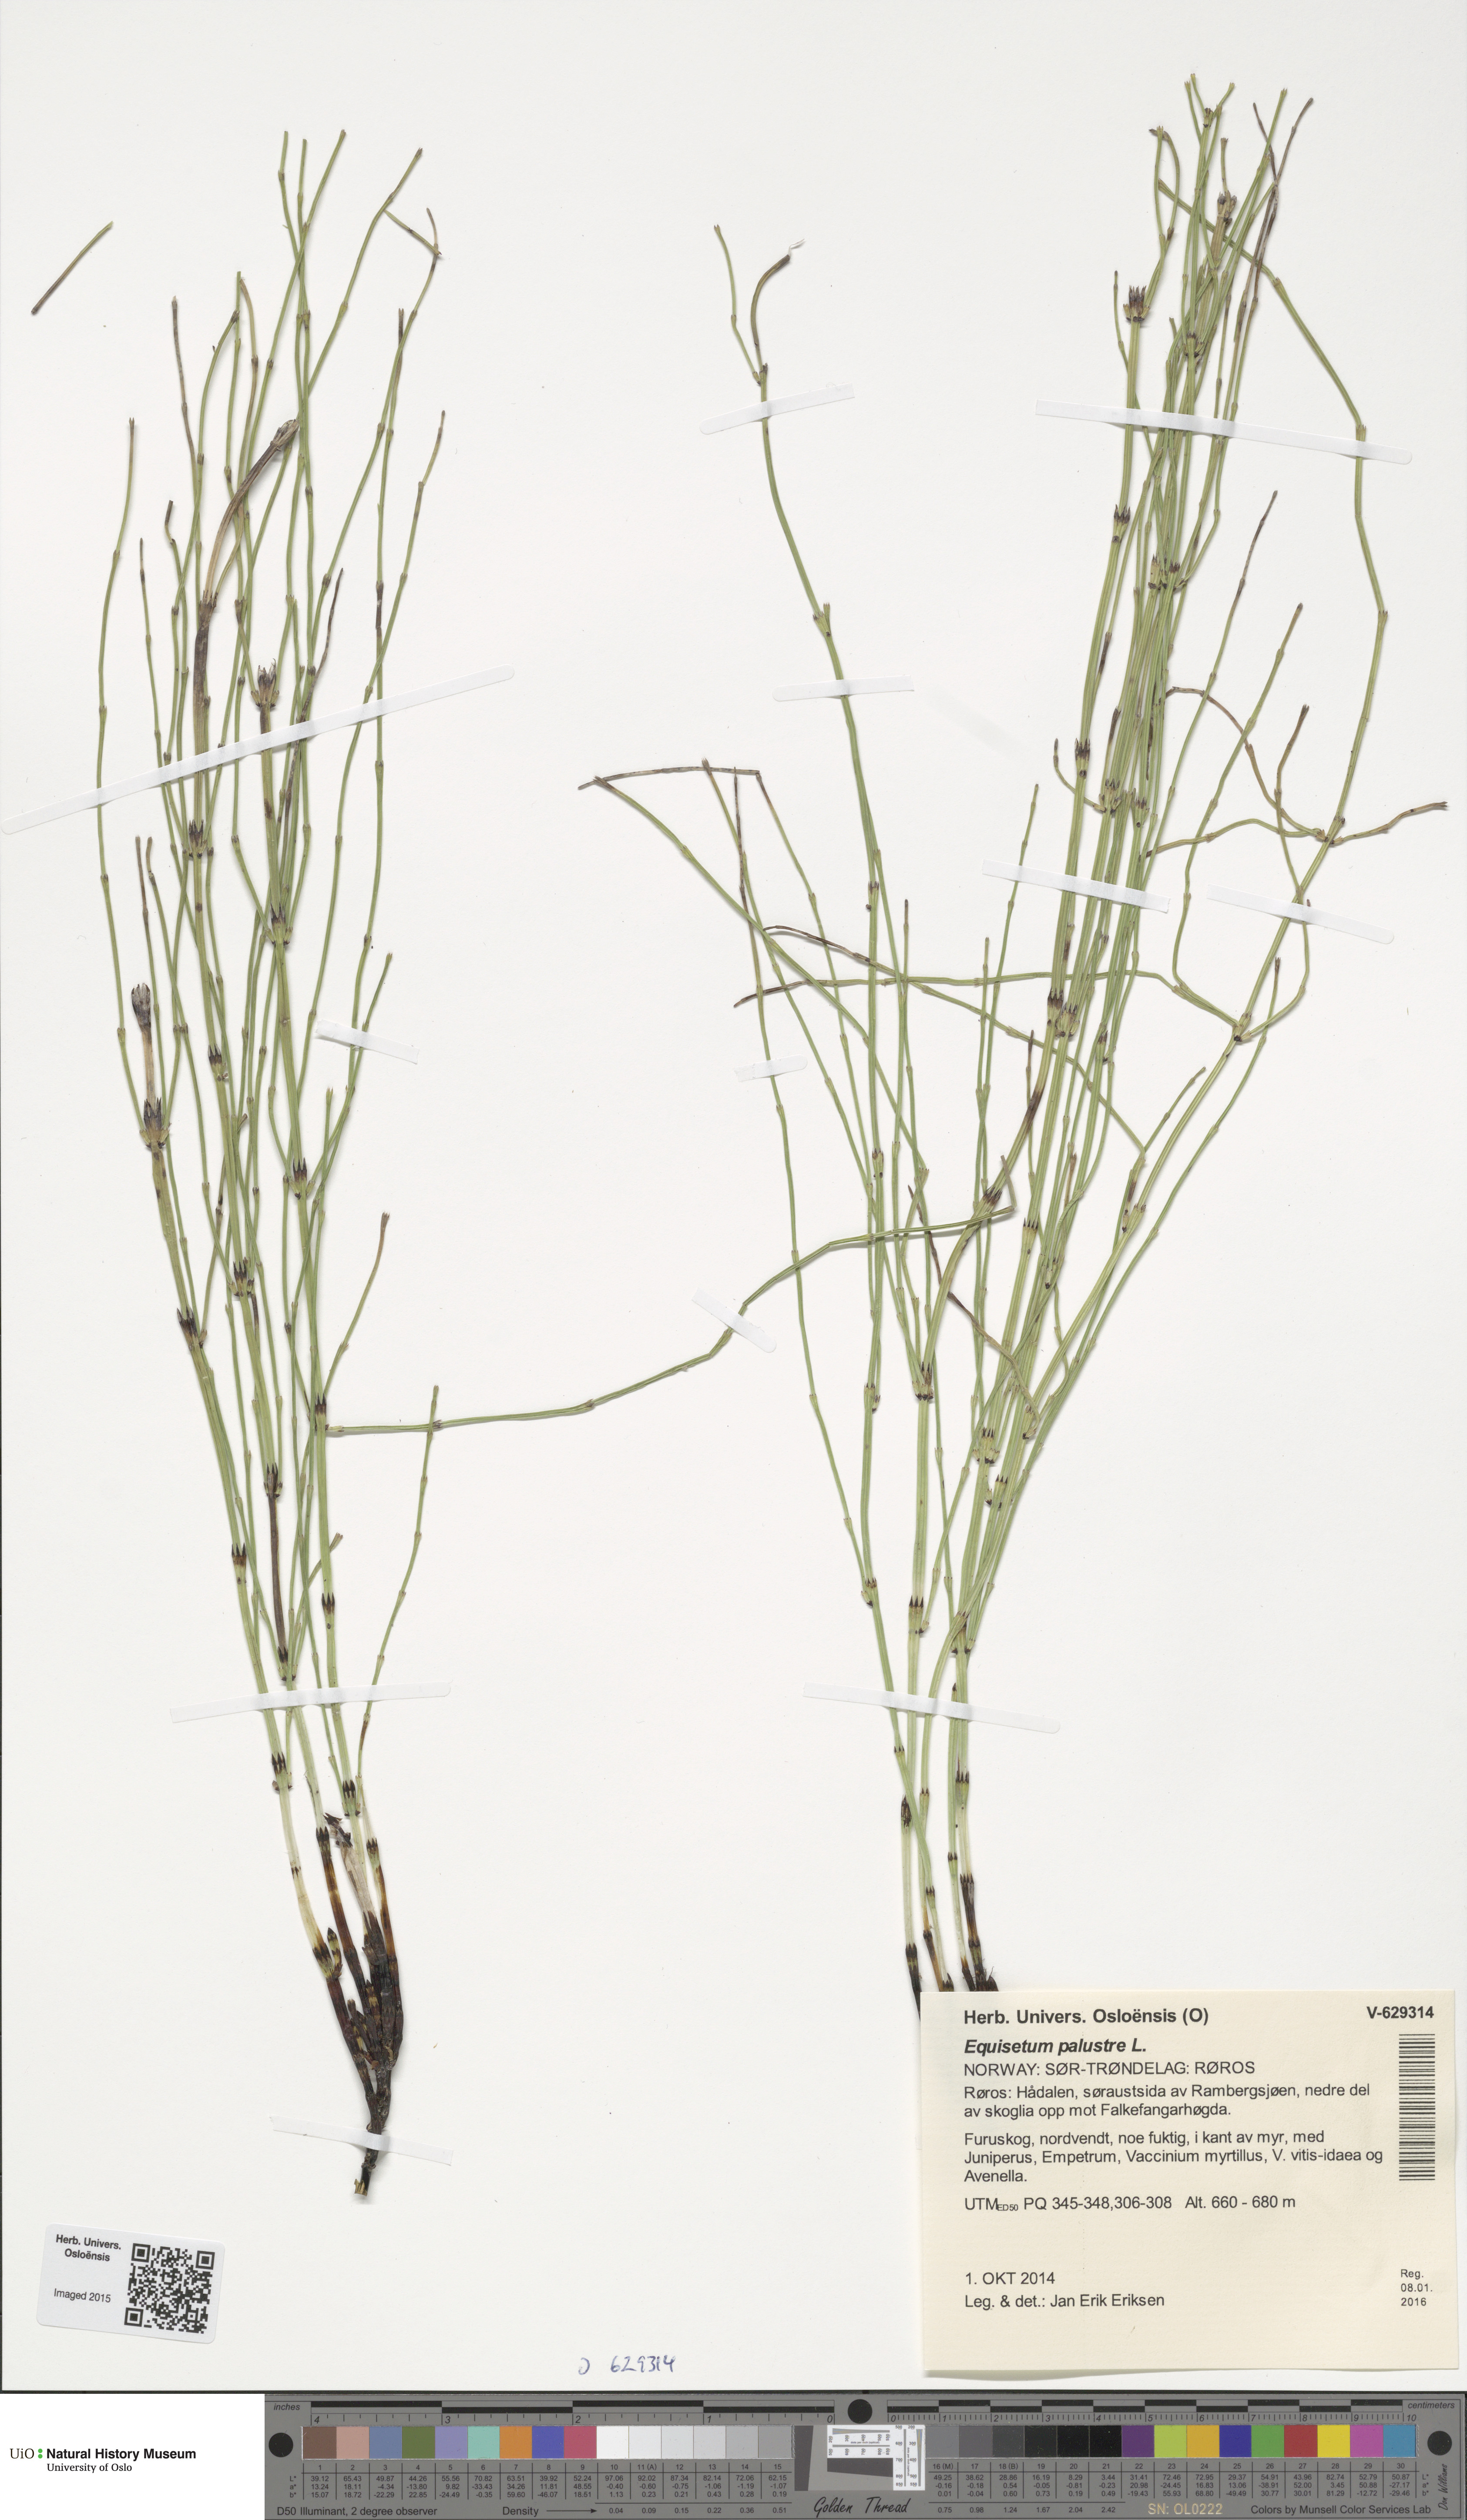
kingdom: Plantae
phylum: Tracheophyta
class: Polypodiopsida
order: Equisetales
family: Equisetaceae
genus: Equisetum
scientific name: Equisetum palustre
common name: Marsh horsetail
